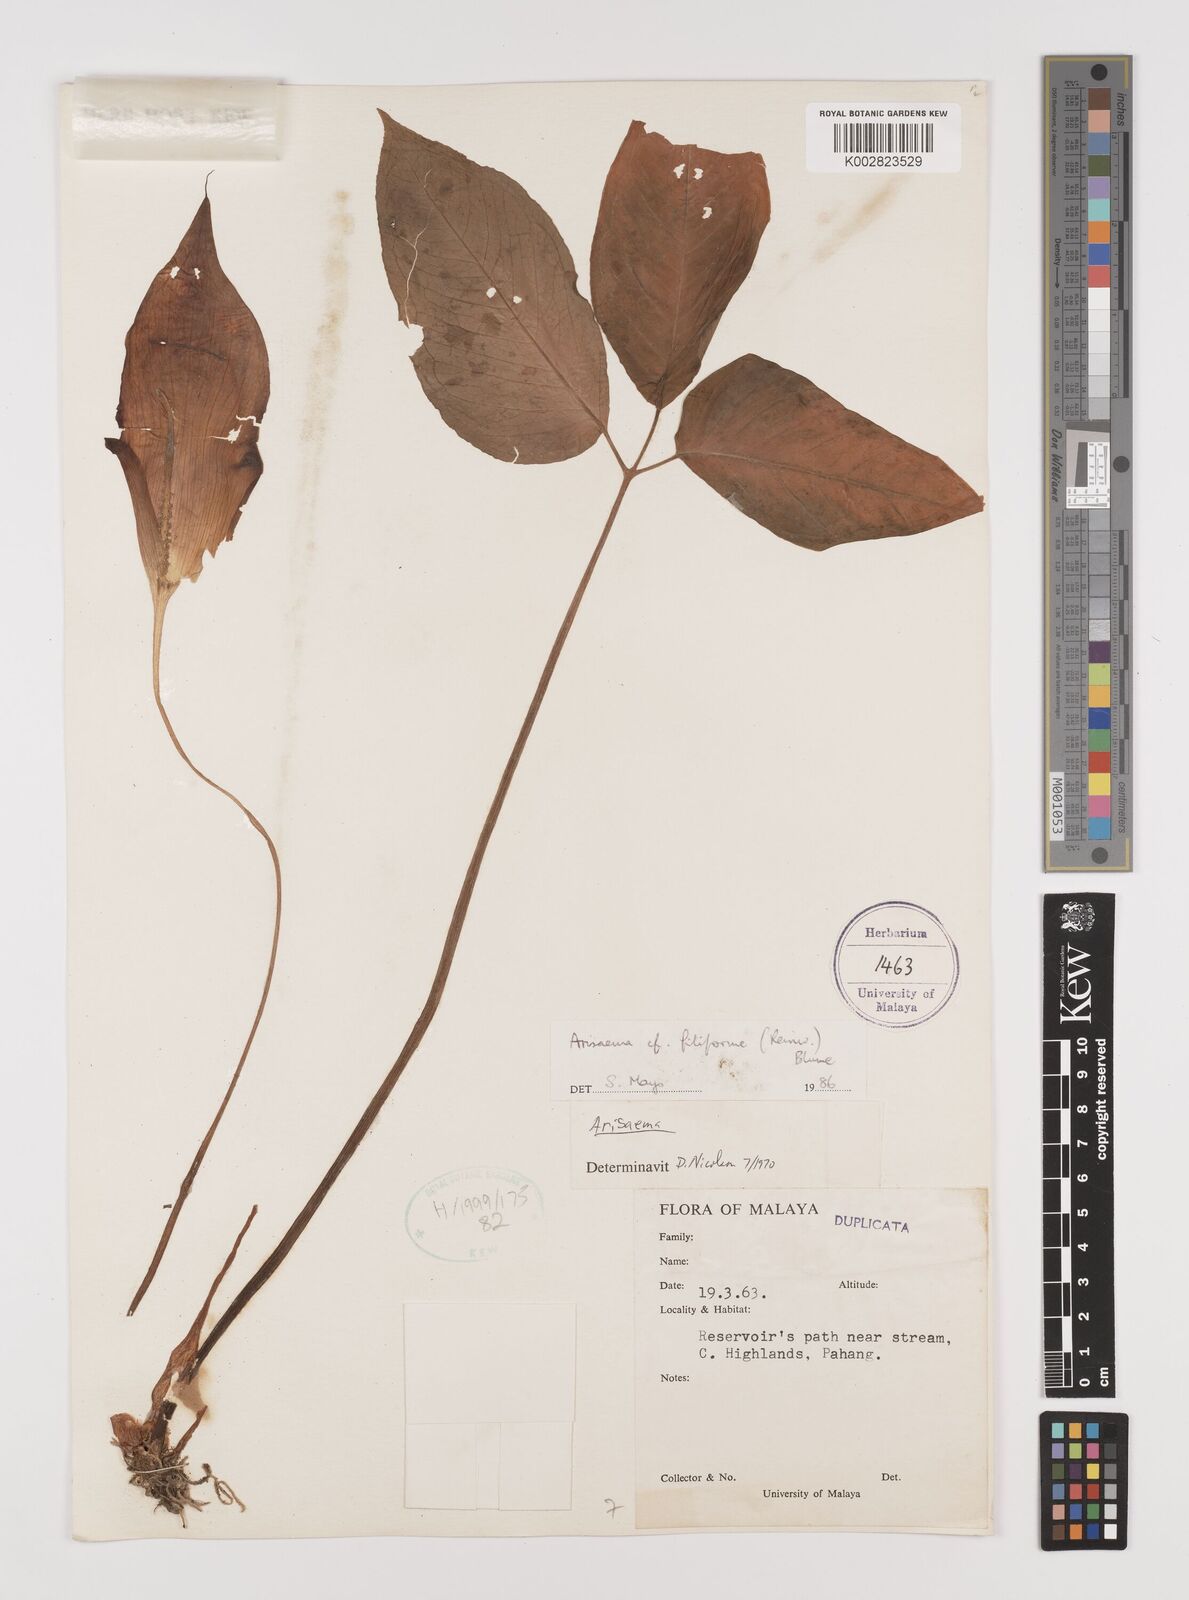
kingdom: Plantae
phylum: Tracheophyta
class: Liliopsida
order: Alismatales
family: Araceae
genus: Arisaema
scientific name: Arisaema filiforme
